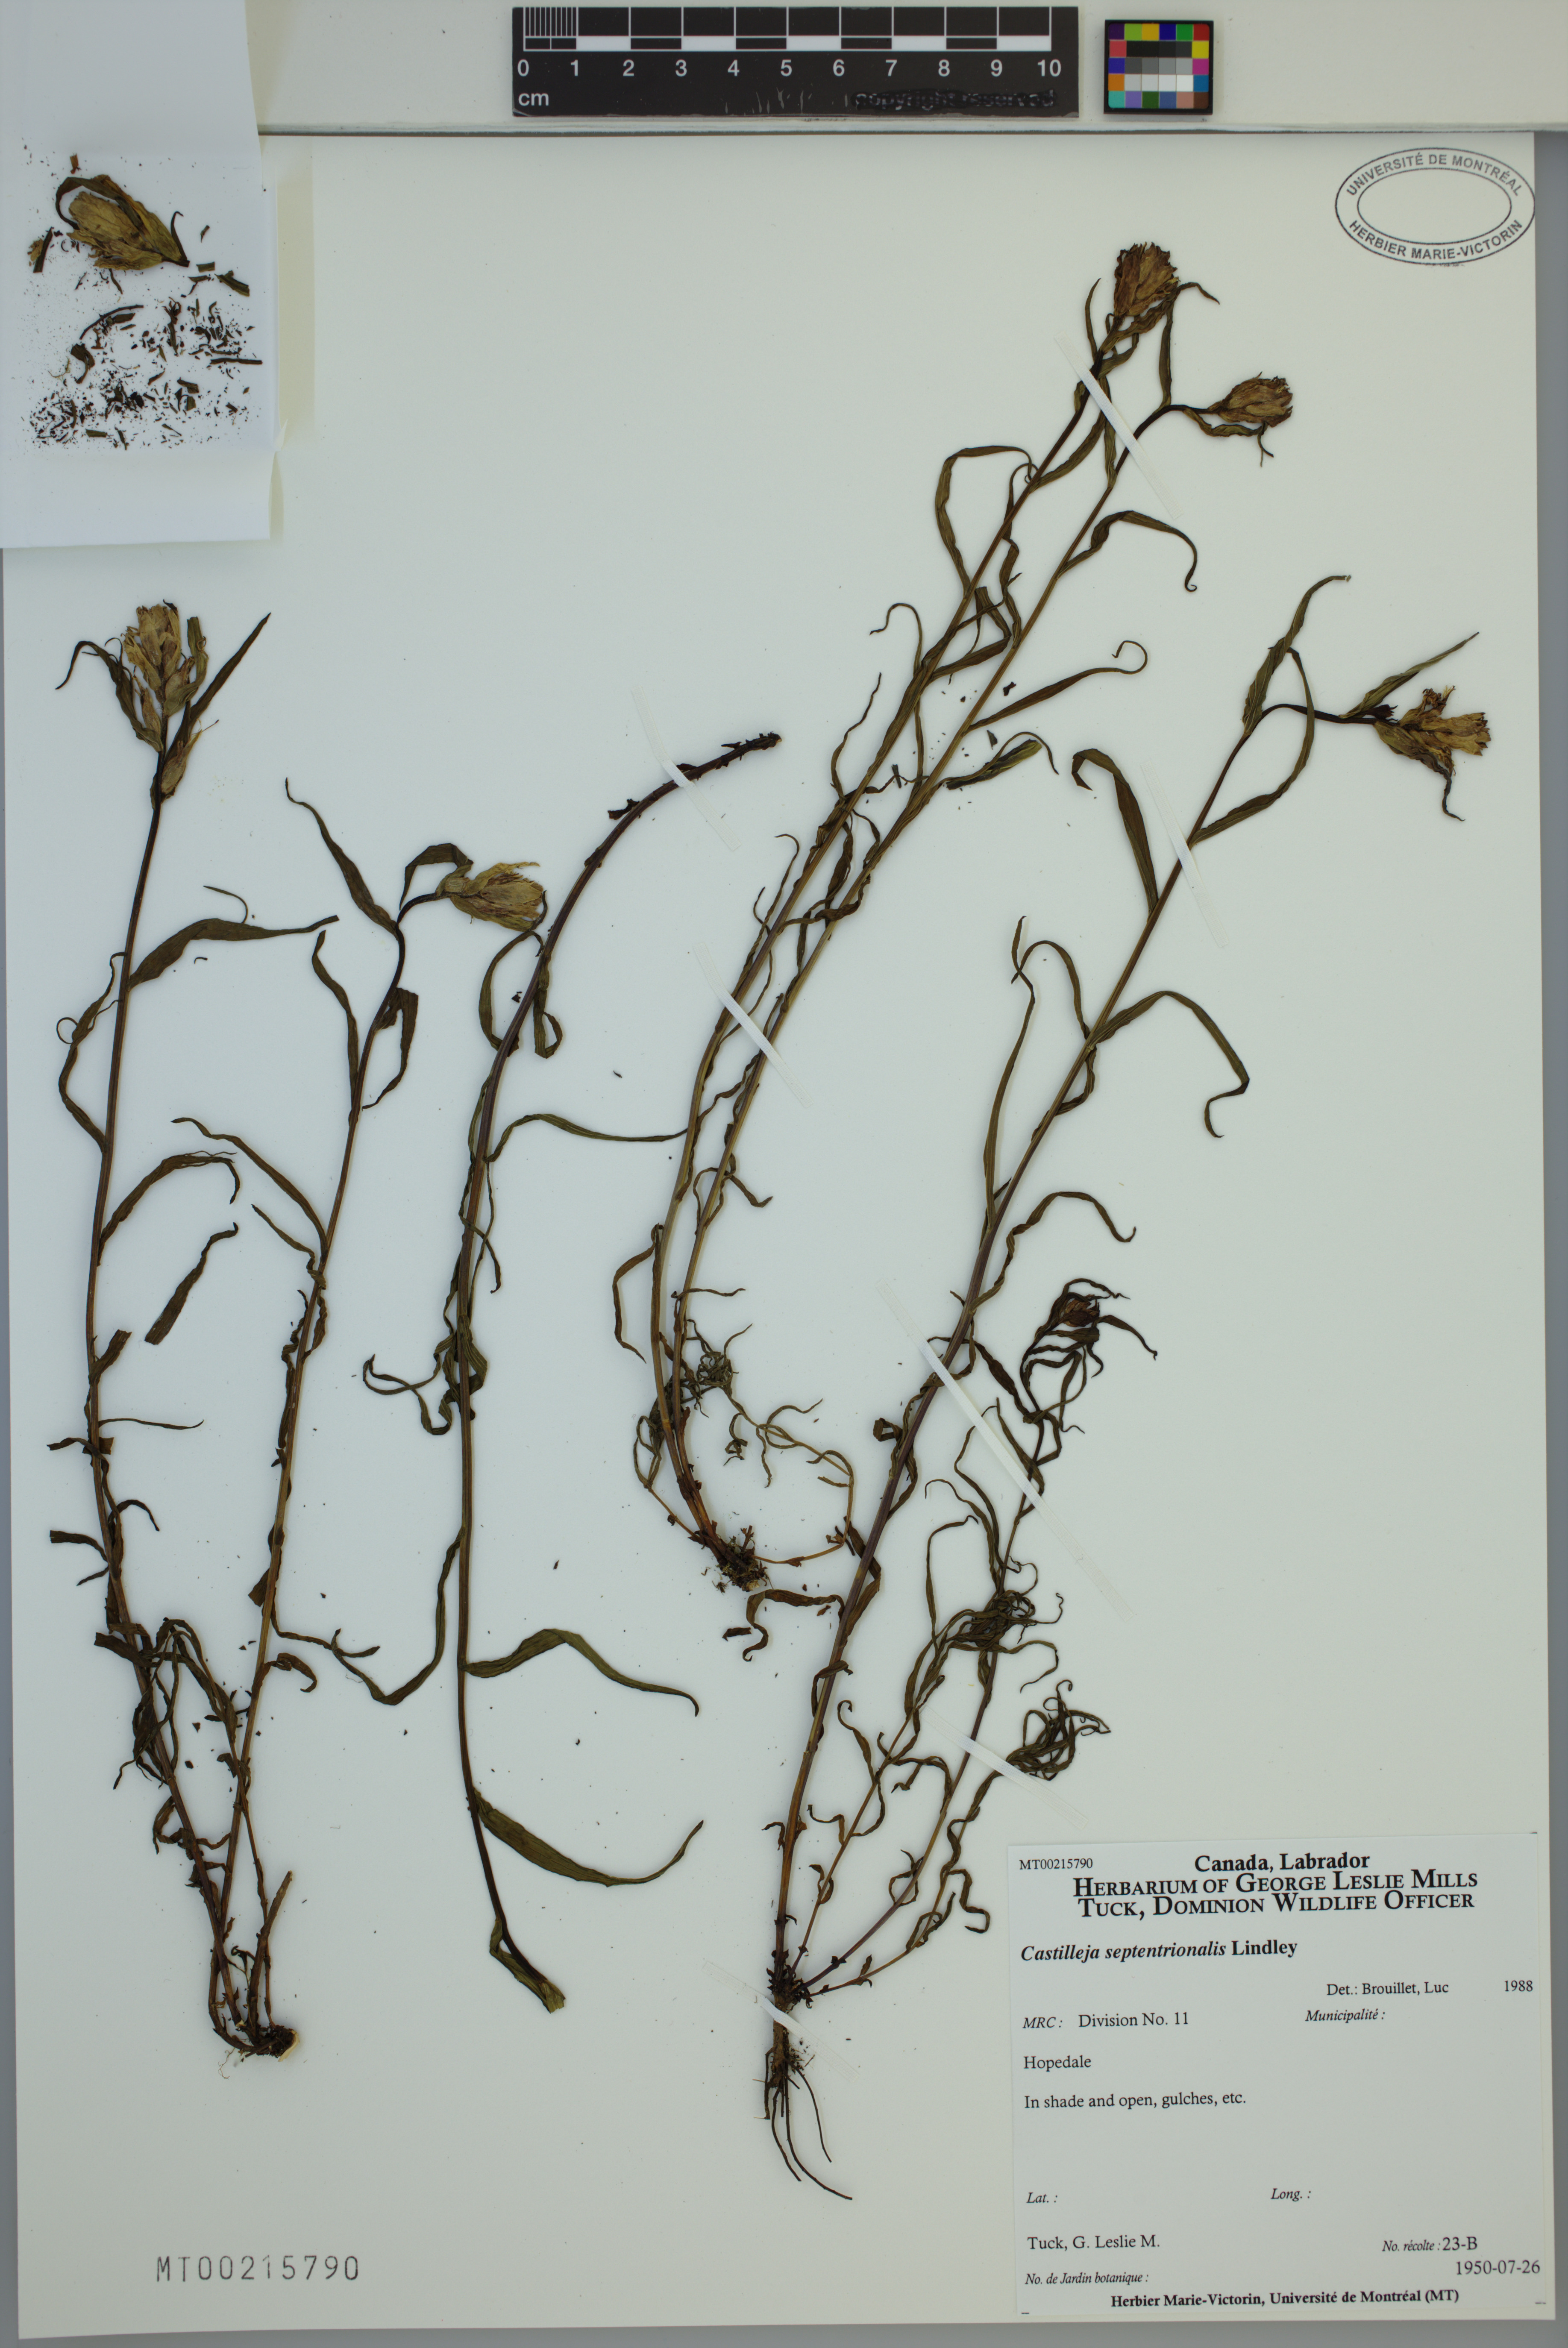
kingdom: Plantae
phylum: Tracheophyta
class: Magnoliopsida
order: Lamiales
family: Orobanchaceae
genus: Castilleja
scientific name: Castilleja septentrionalis
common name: Northeastern paintbrush
